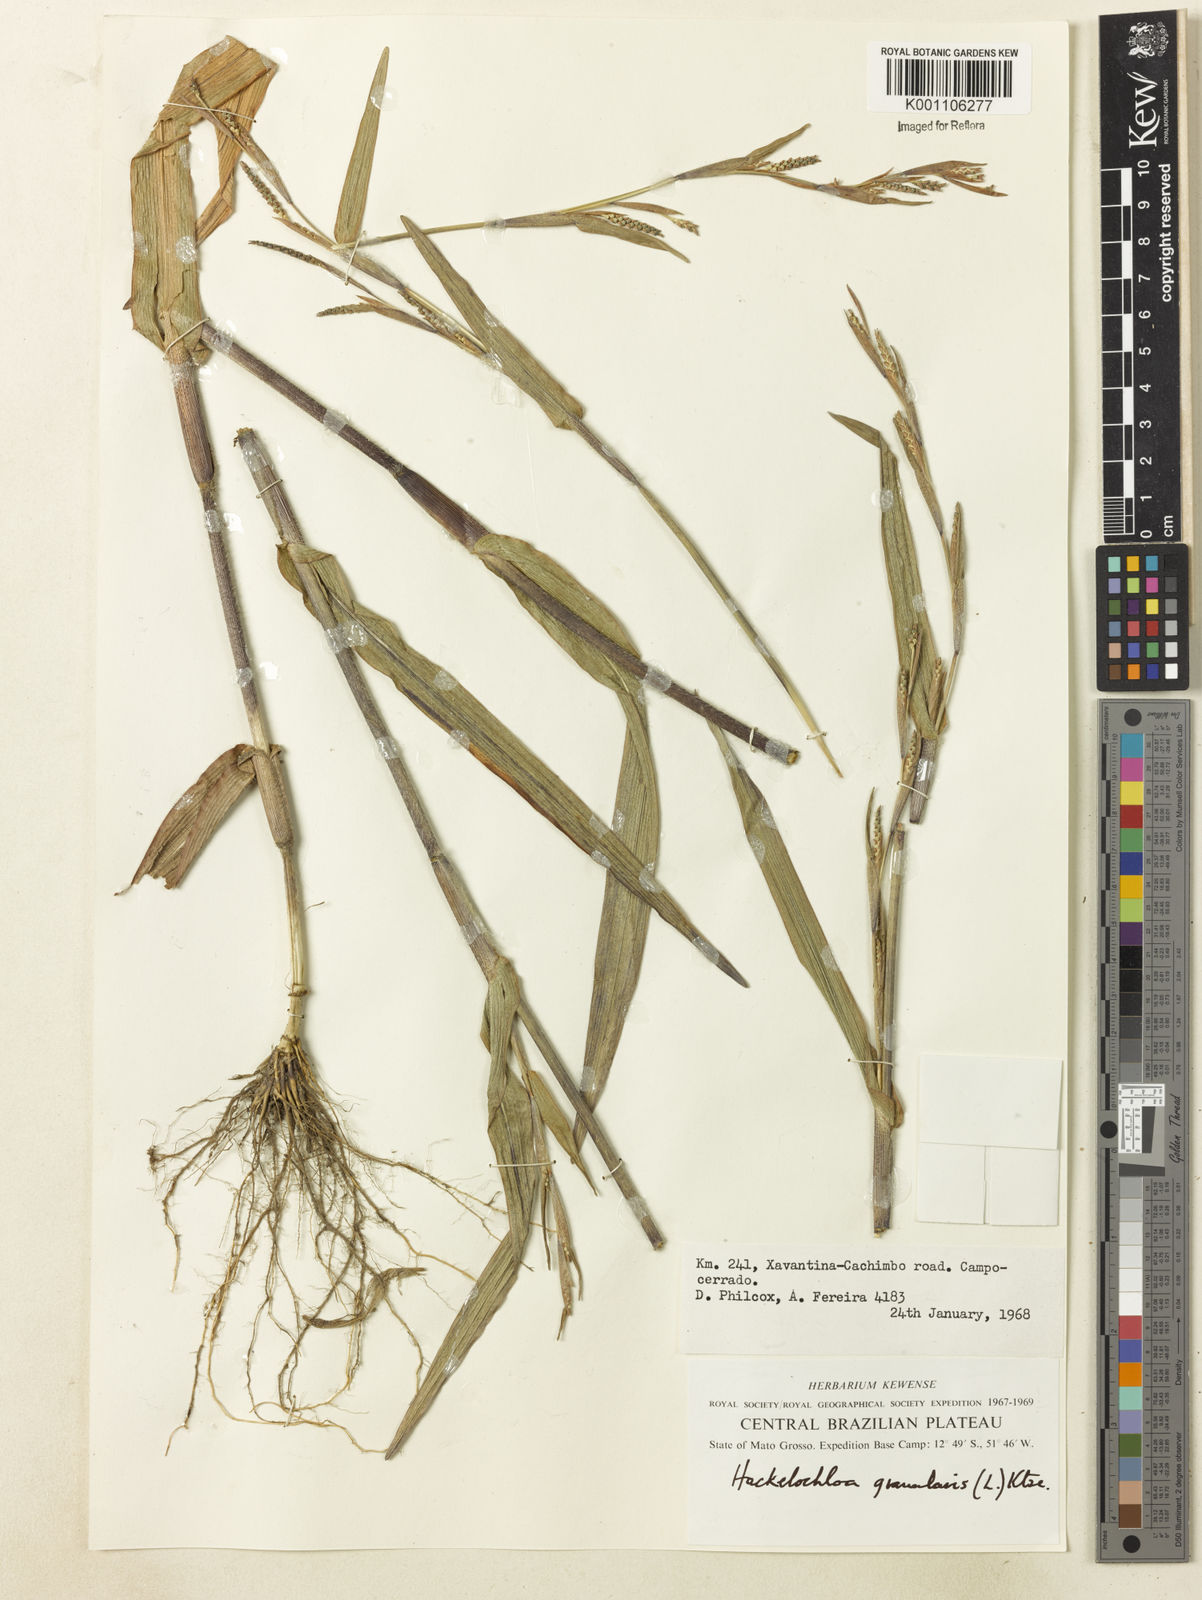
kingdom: Plantae
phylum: Tracheophyta
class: Liliopsida
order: Poales
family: Poaceae
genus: Hackelochloa
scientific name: Hackelochloa granularis
